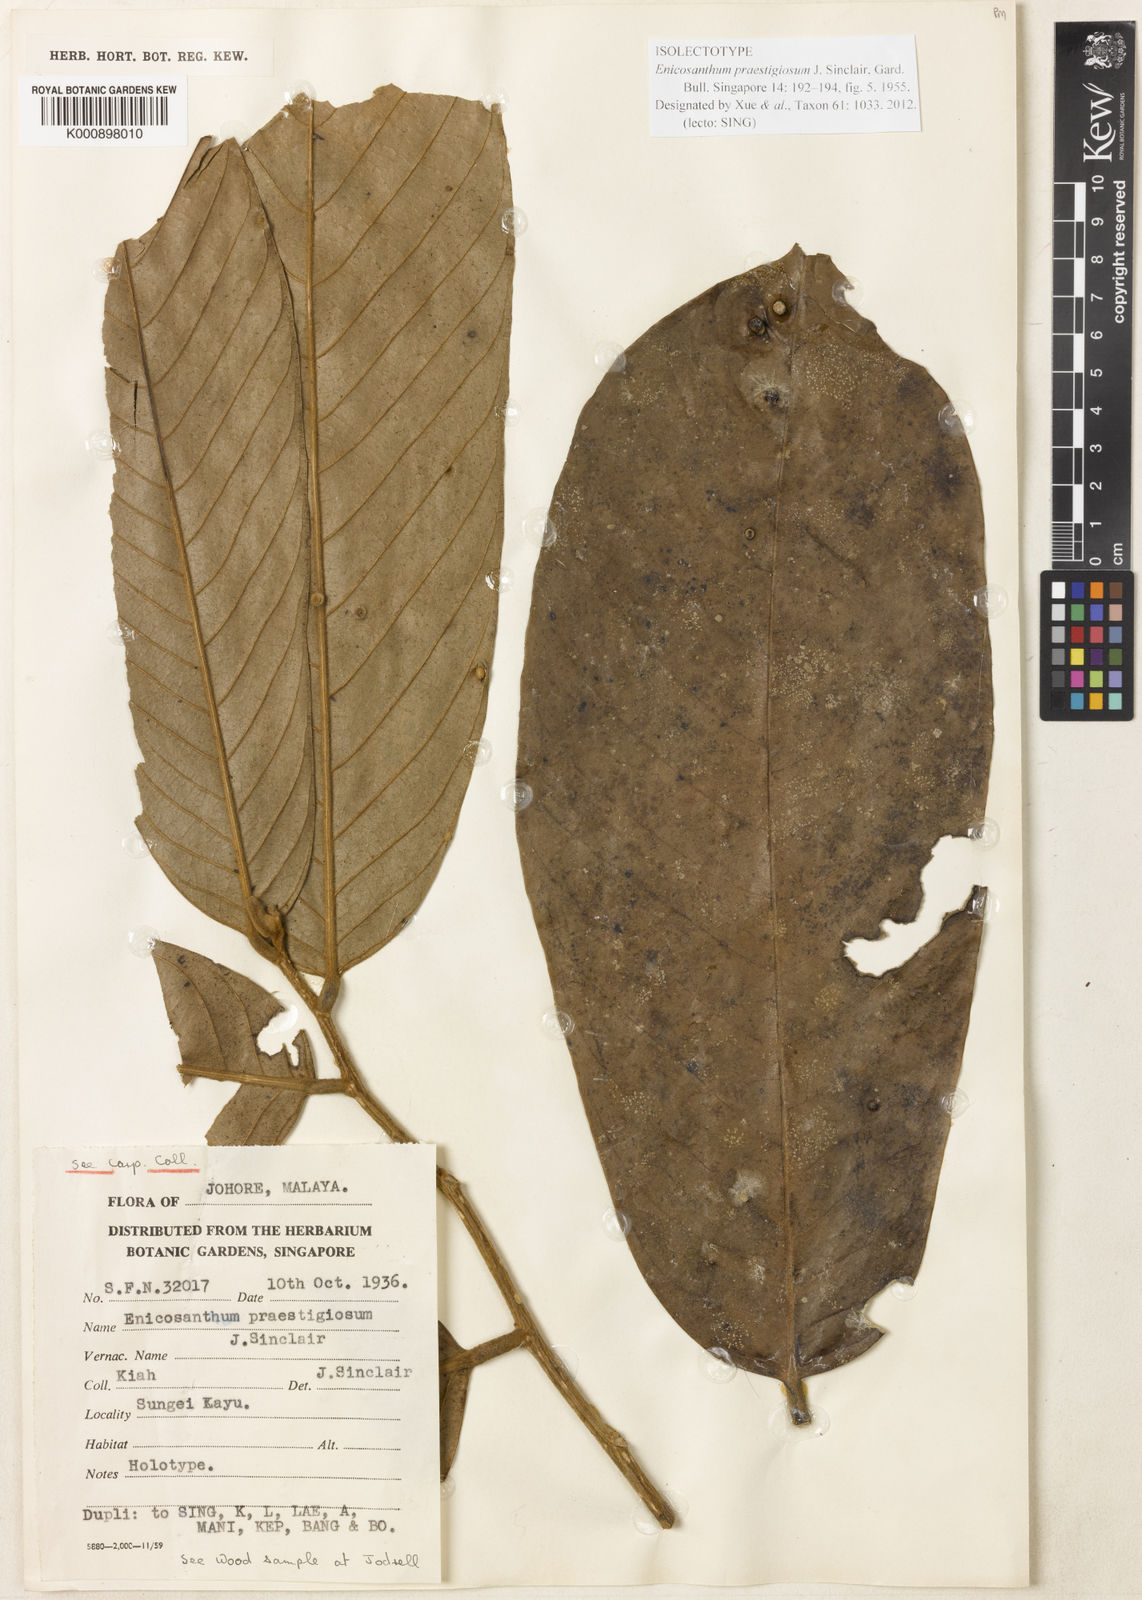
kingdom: Plantae
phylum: Tracheophyta
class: Magnoliopsida
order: Magnoliales
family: Annonaceae
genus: Enicosanthum
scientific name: Enicosanthum praestigiosum
